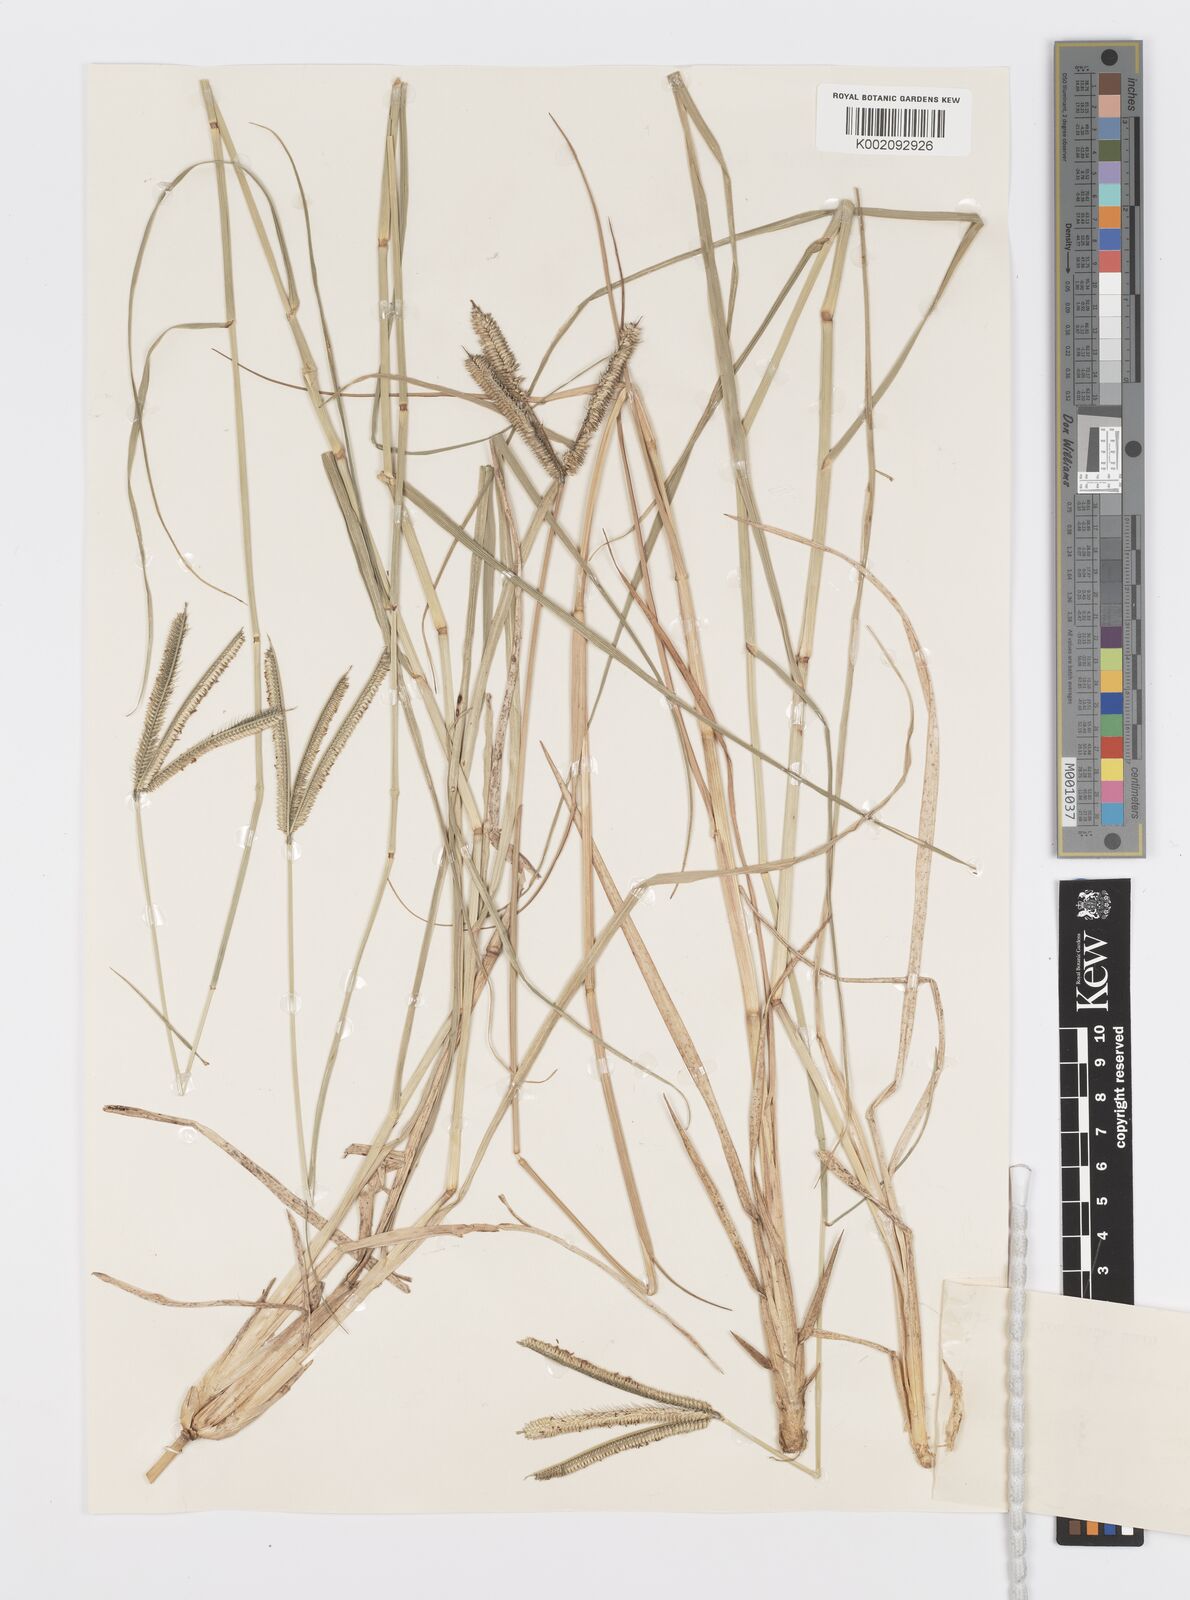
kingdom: Plantae
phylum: Tracheophyta
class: Liliopsida
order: Poales
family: Poaceae
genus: Dactyloctenium
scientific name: Dactyloctenium geminatum
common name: Crowsfoot grass
